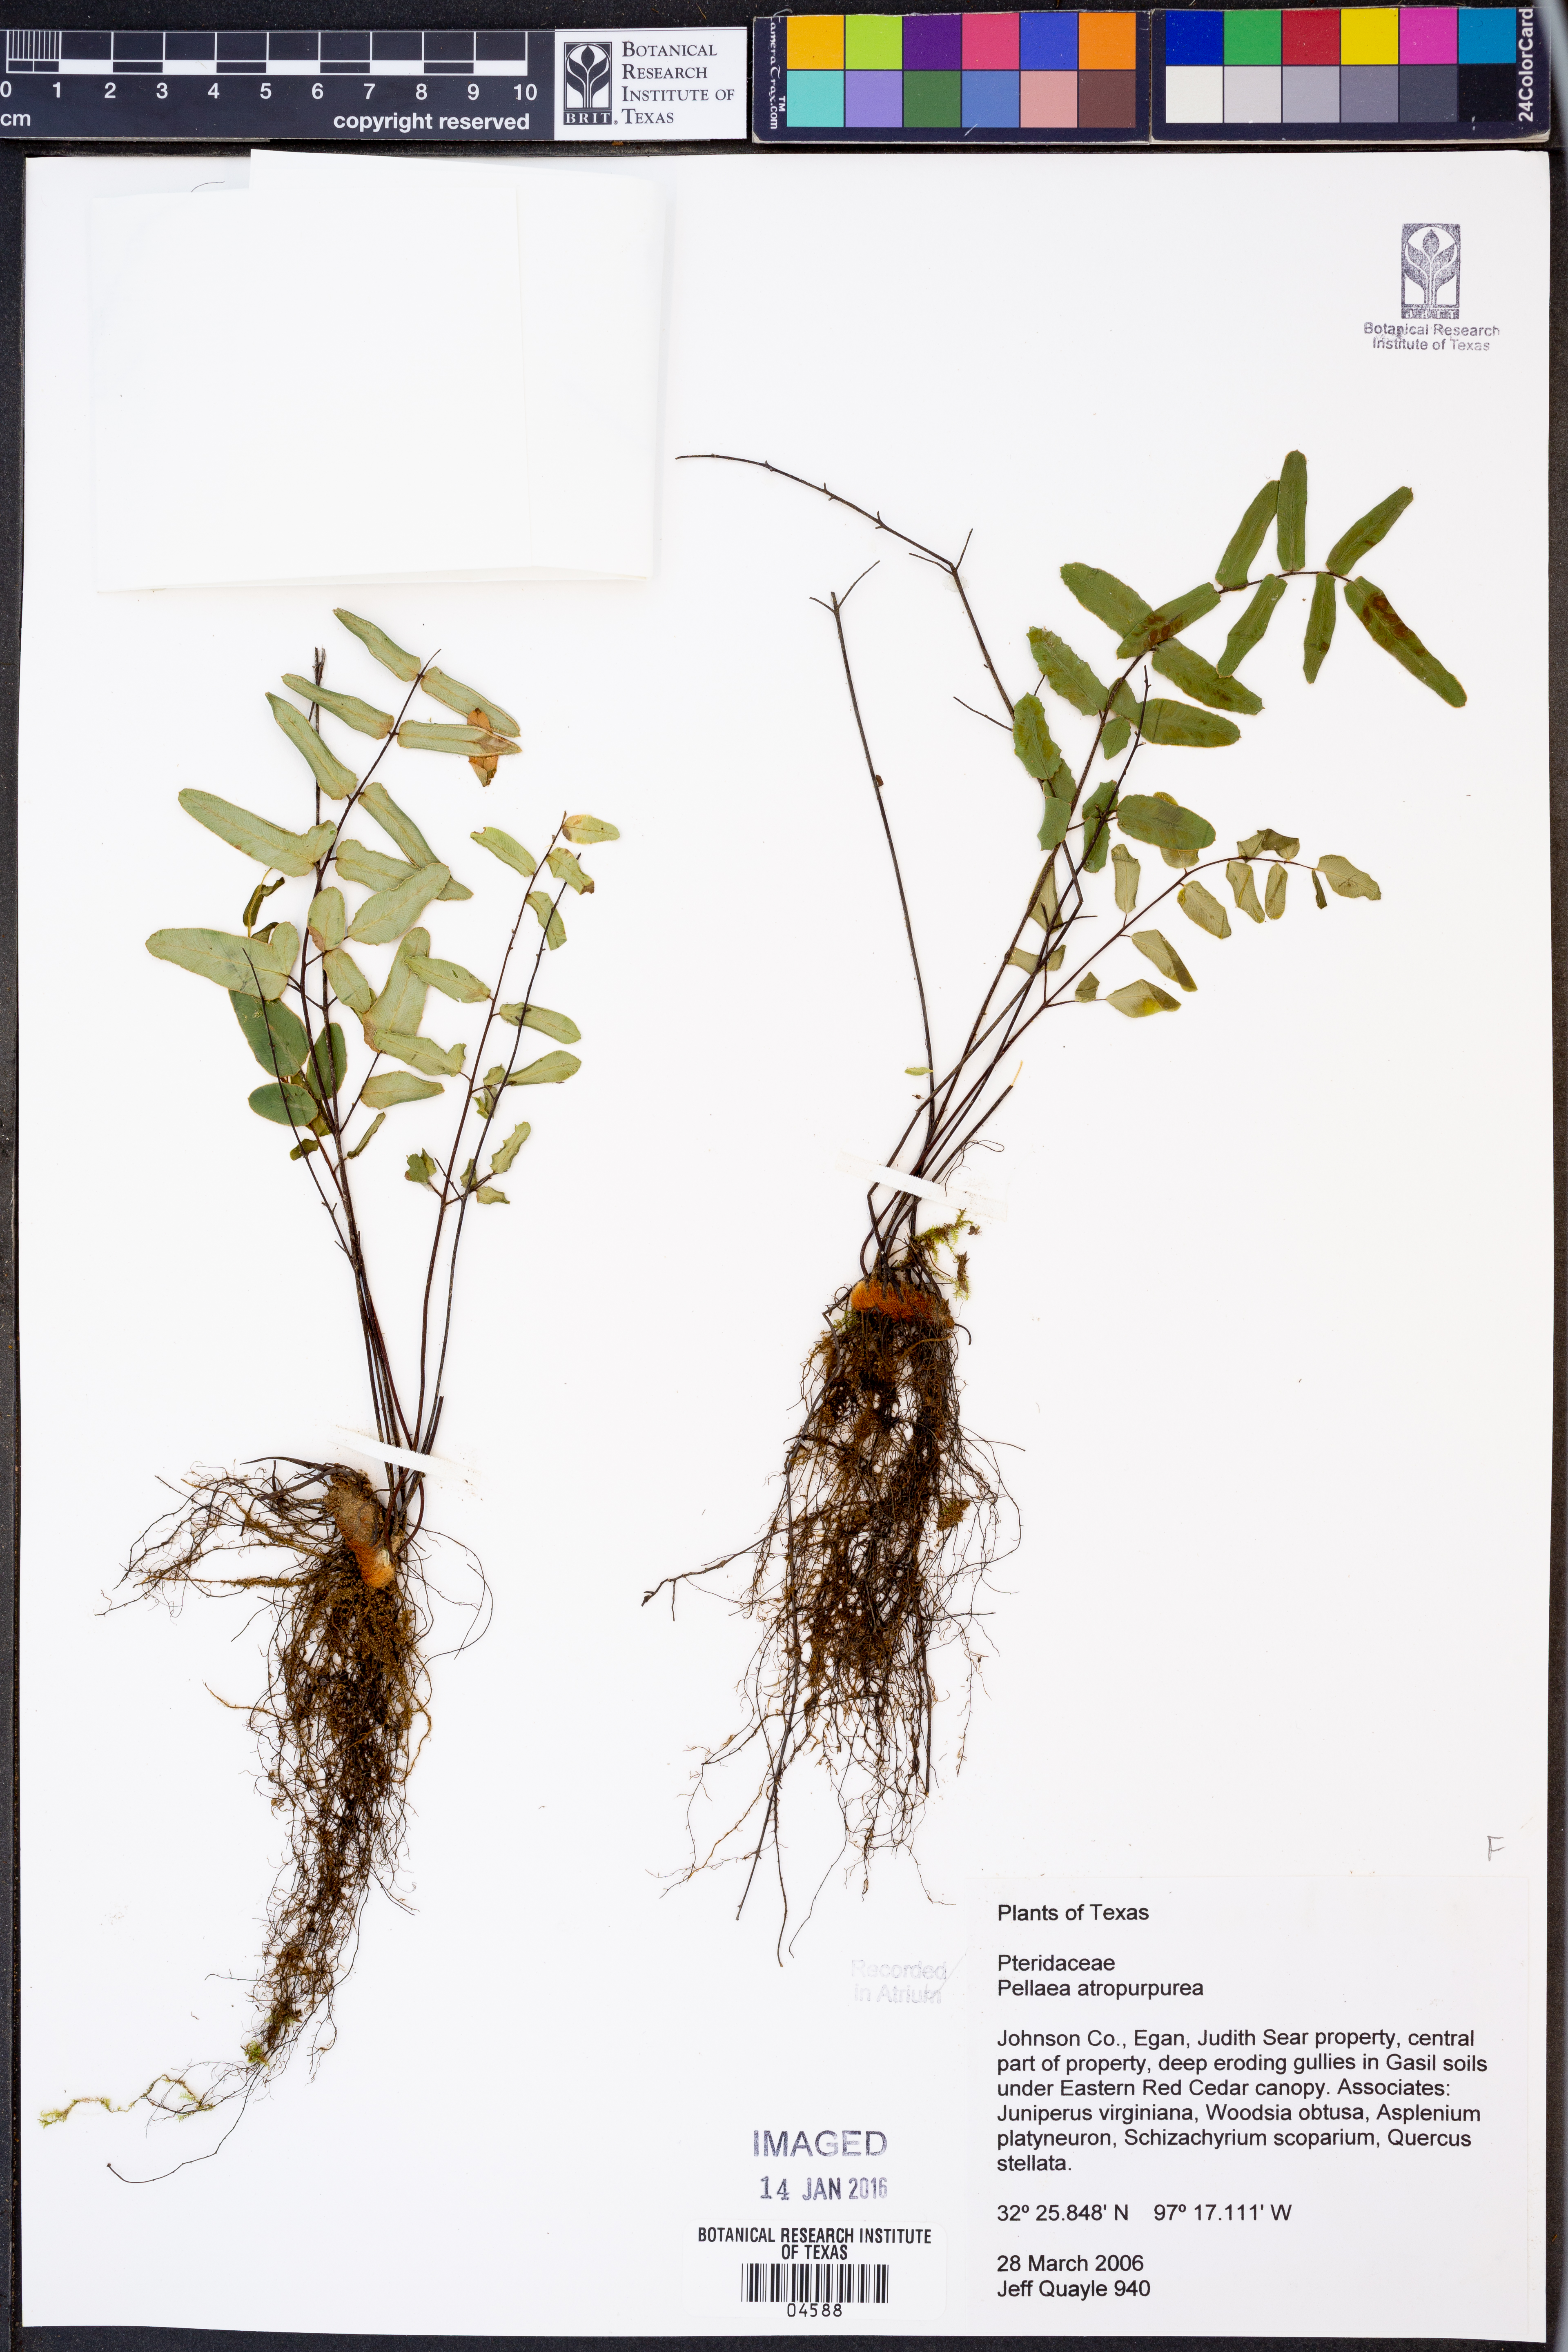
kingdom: Plantae
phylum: Tracheophyta
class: Polypodiopsida
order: Polypodiales
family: Pteridaceae
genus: Pellaea
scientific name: Pellaea atropurpurea
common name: Hairy cliffbrake
